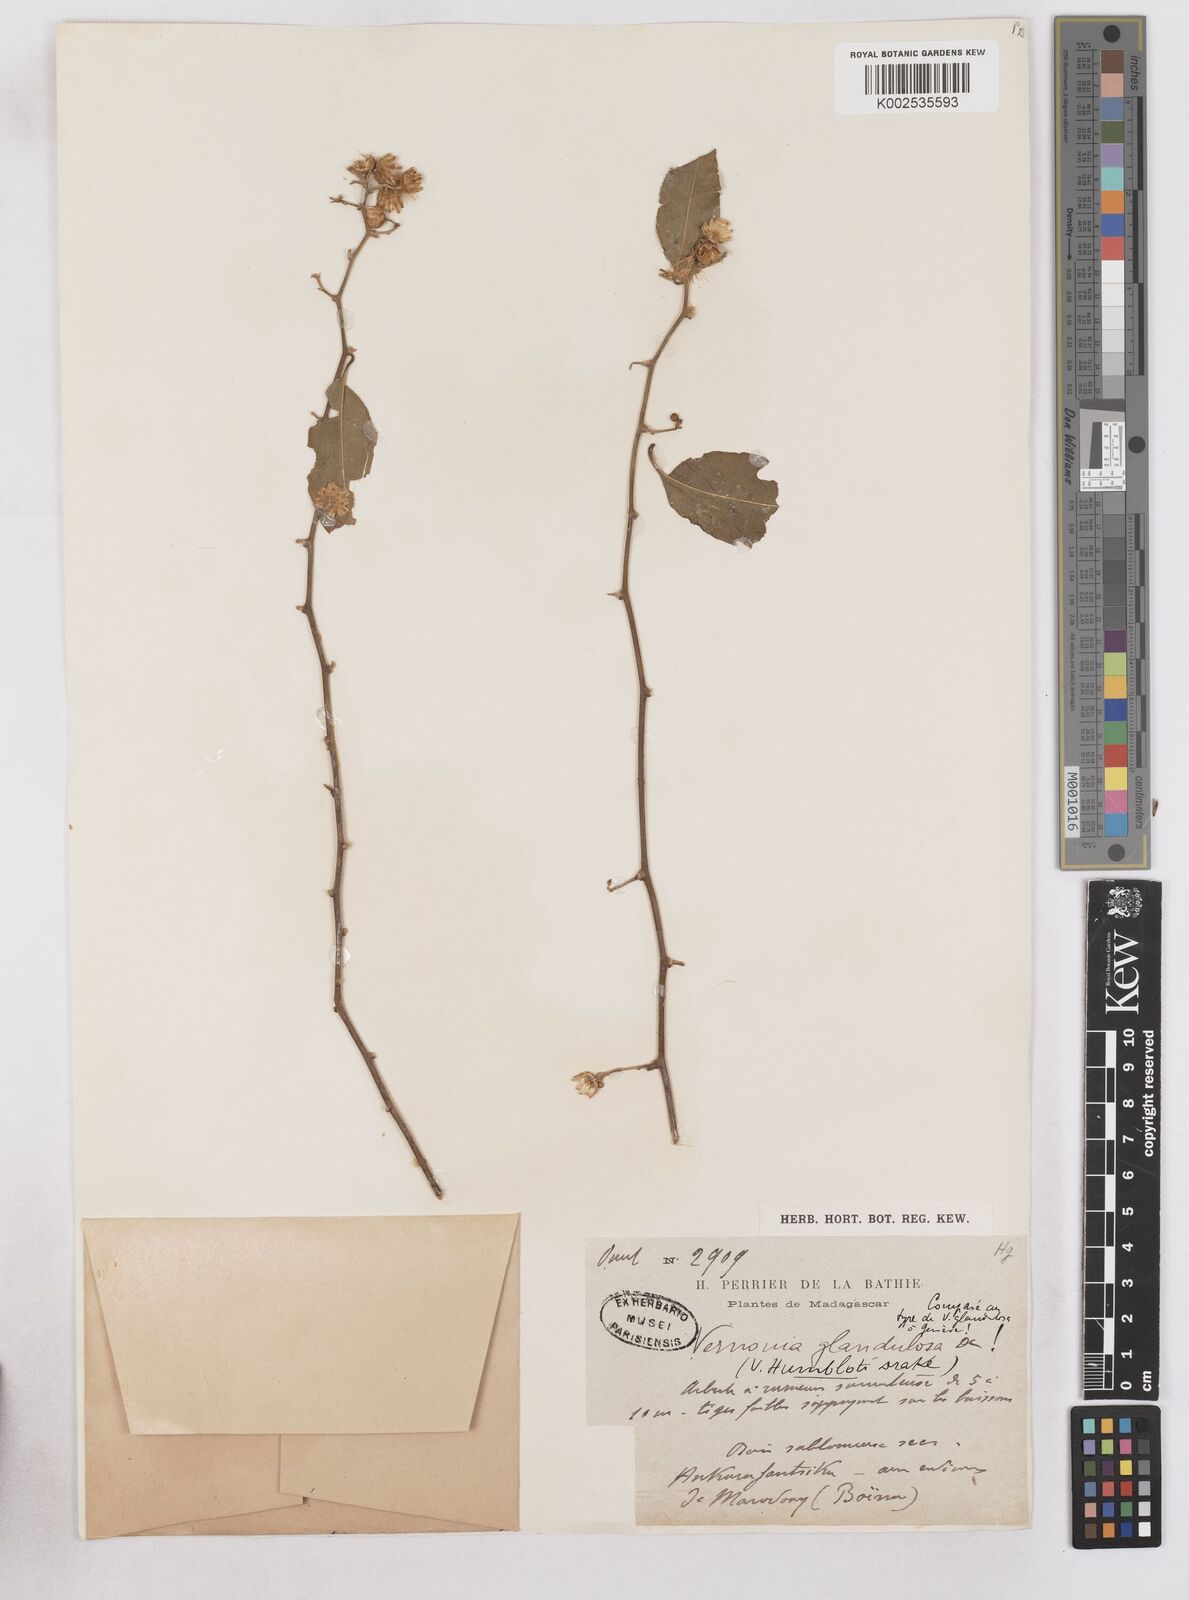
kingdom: Plantae
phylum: Tracheophyta
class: Magnoliopsida
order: Asterales
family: Asteraceae
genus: Distephanus
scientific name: Distephanus madagascariensis
